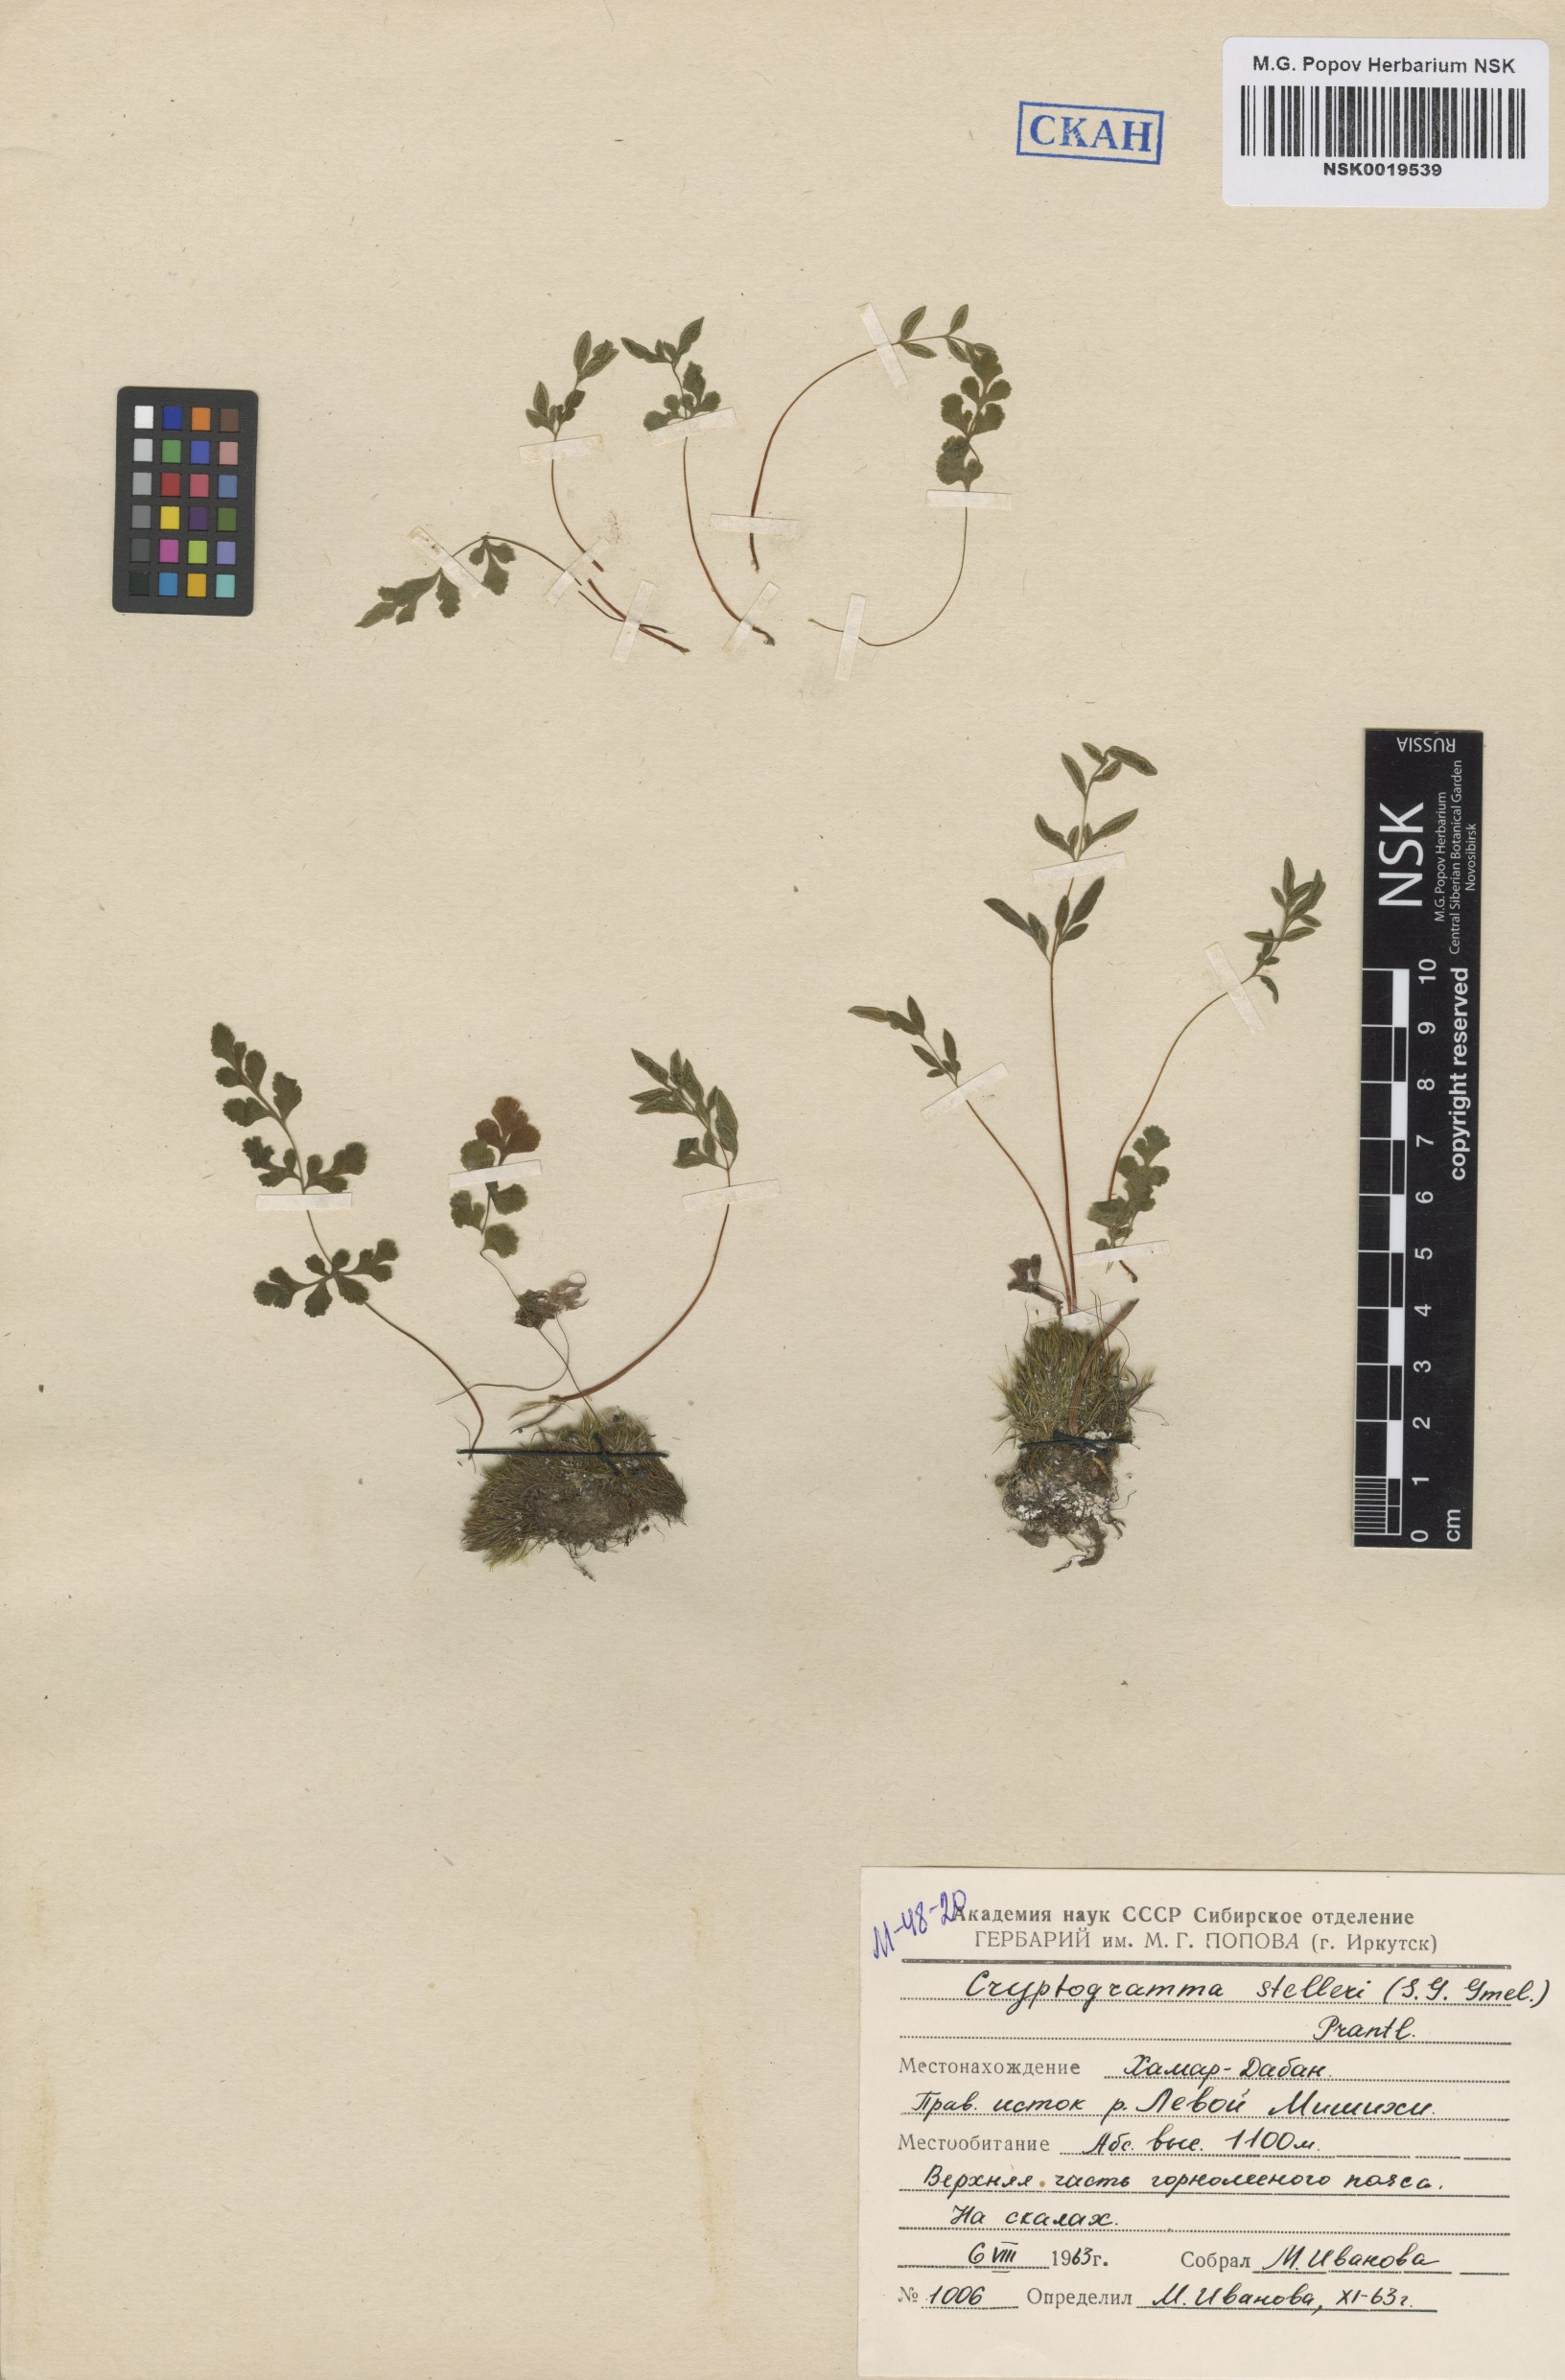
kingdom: Plantae
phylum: Tracheophyta
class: Polypodiopsida
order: Polypodiales
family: Pteridaceae
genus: Cryptogramma
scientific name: Cryptogramma stelleri
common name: Cliff-brake
